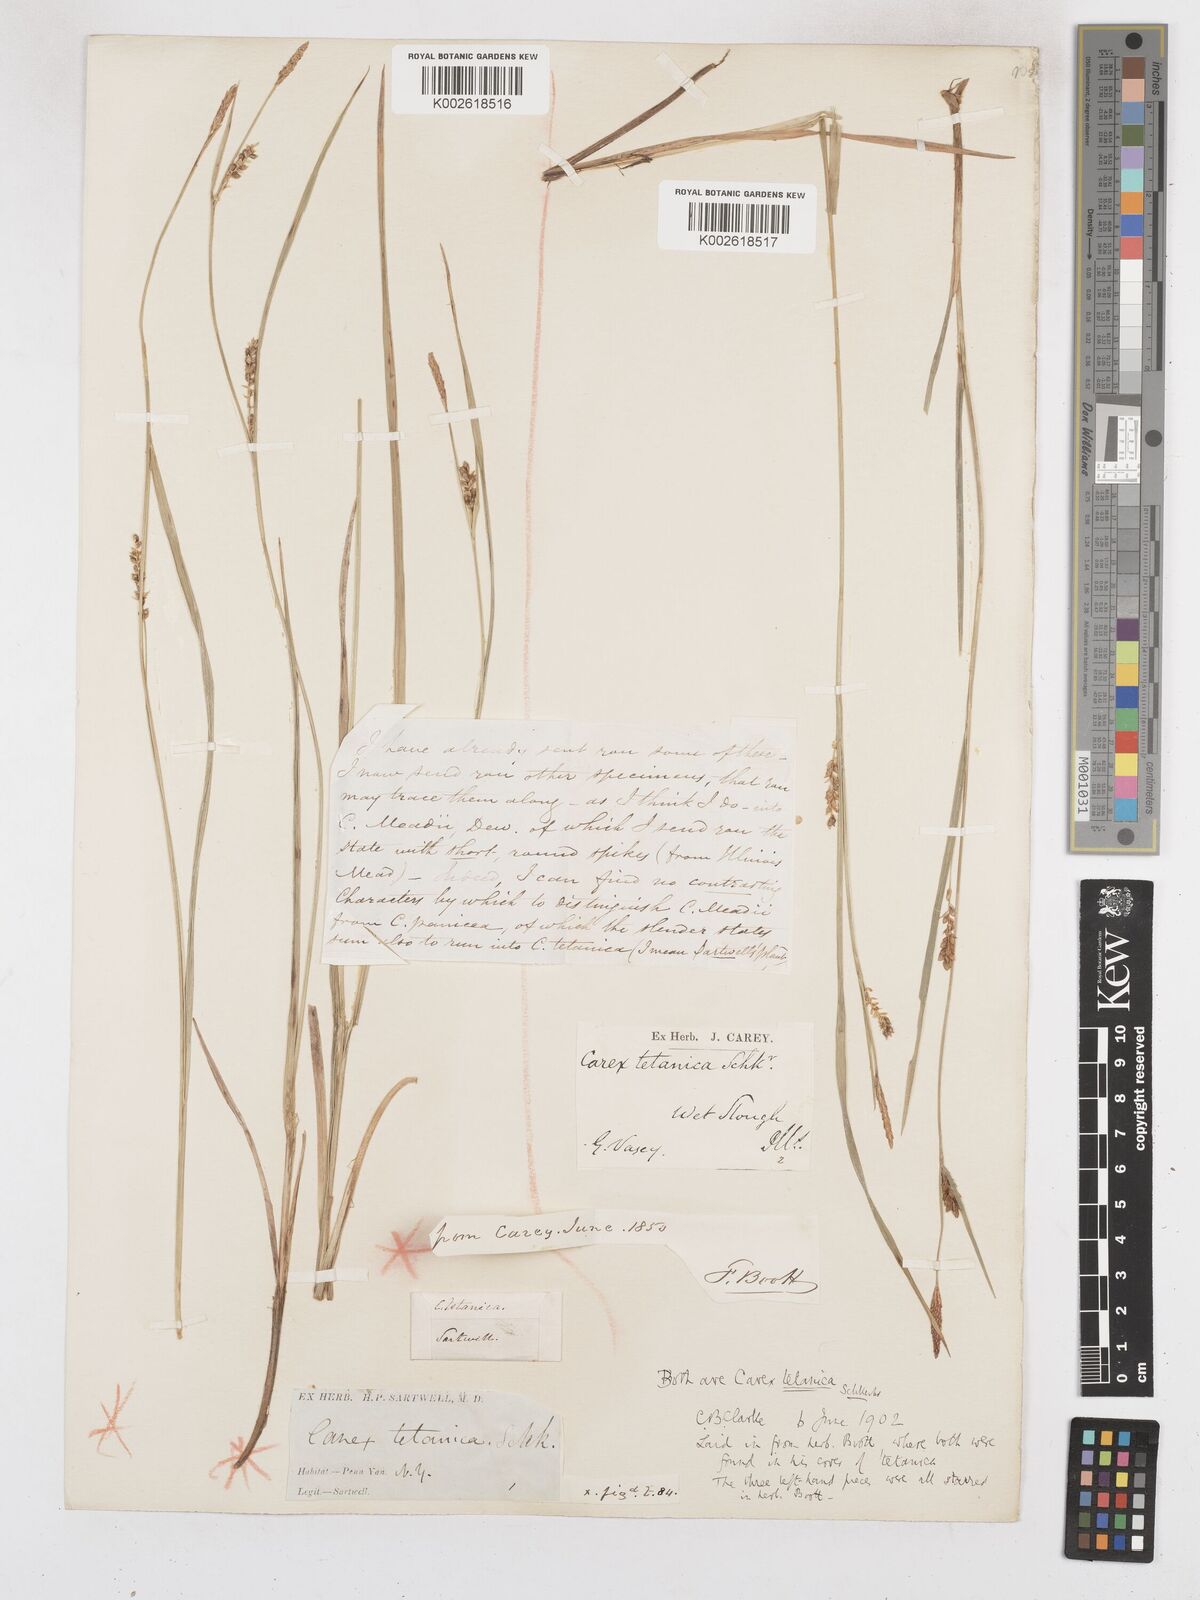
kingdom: Plantae
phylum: Tracheophyta
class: Liliopsida
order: Poales
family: Cyperaceae
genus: Carex
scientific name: Carex tetanica
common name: Rigid sedge
